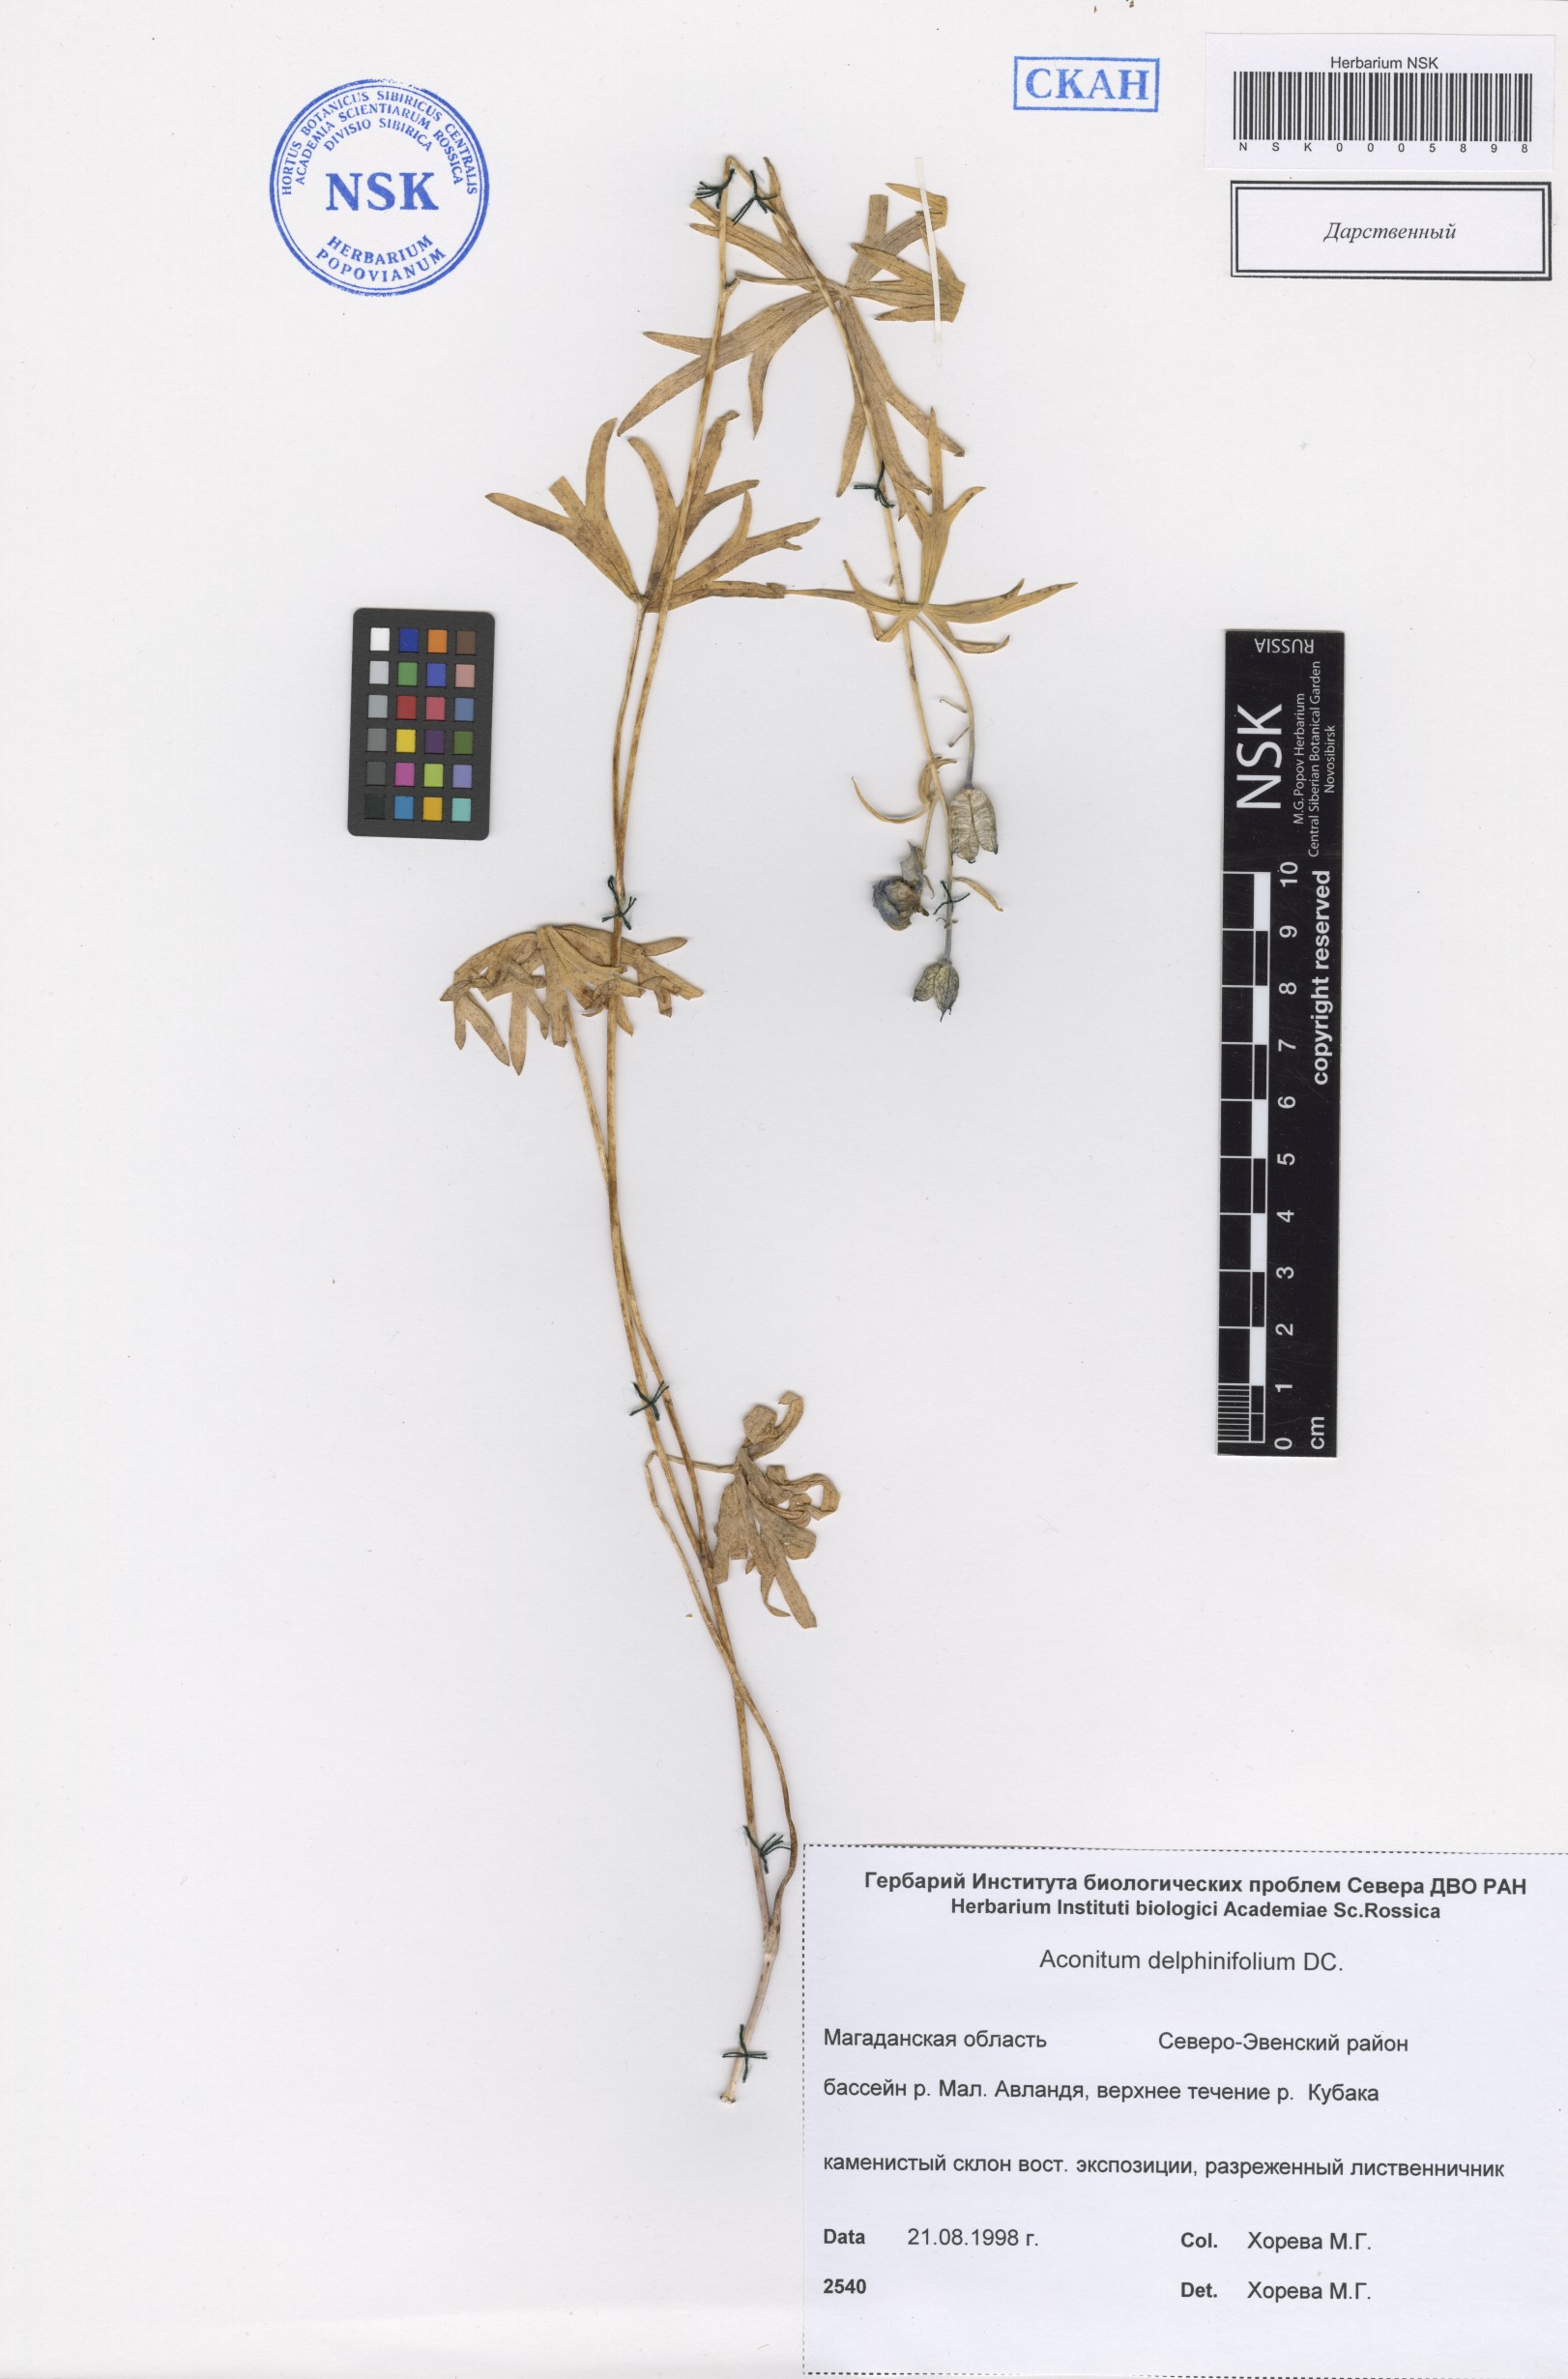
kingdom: Plantae
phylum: Tracheophyta
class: Magnoliopsida
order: Ranunculales
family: Ranunculaceae
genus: Aconitum
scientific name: Aconitum delphinifolium
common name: Larkspur-leaved monkshood
